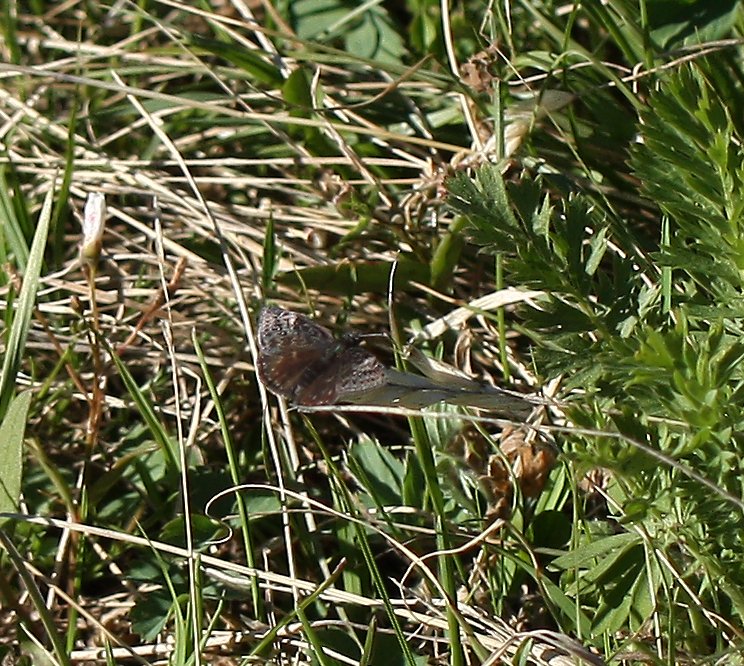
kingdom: Animalia
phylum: Arthropoda
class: Insecta
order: Lepidoptera
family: Hesperiidae
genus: Erynnis
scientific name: Erynnis
